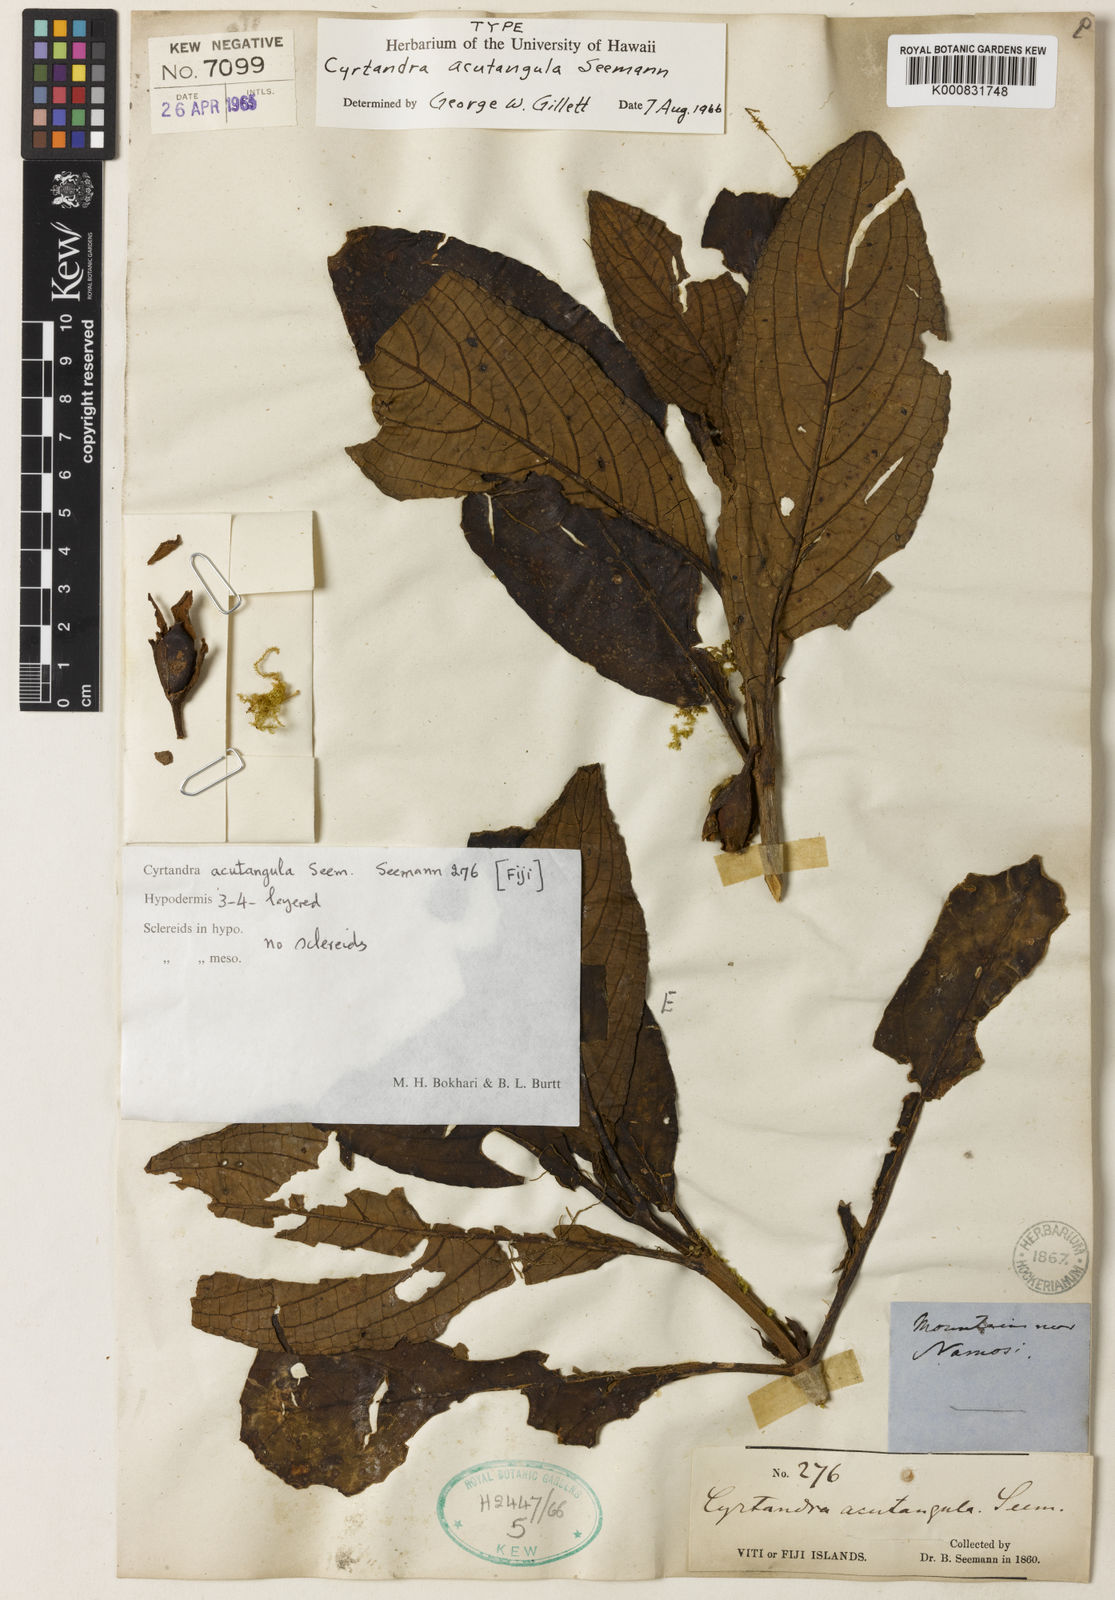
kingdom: Plantae
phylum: Tracheophyta
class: Magnoliopsida
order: Lamiales
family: Gesneriaceae
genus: Cyrtandra
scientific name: Cyrtandra acutangula
